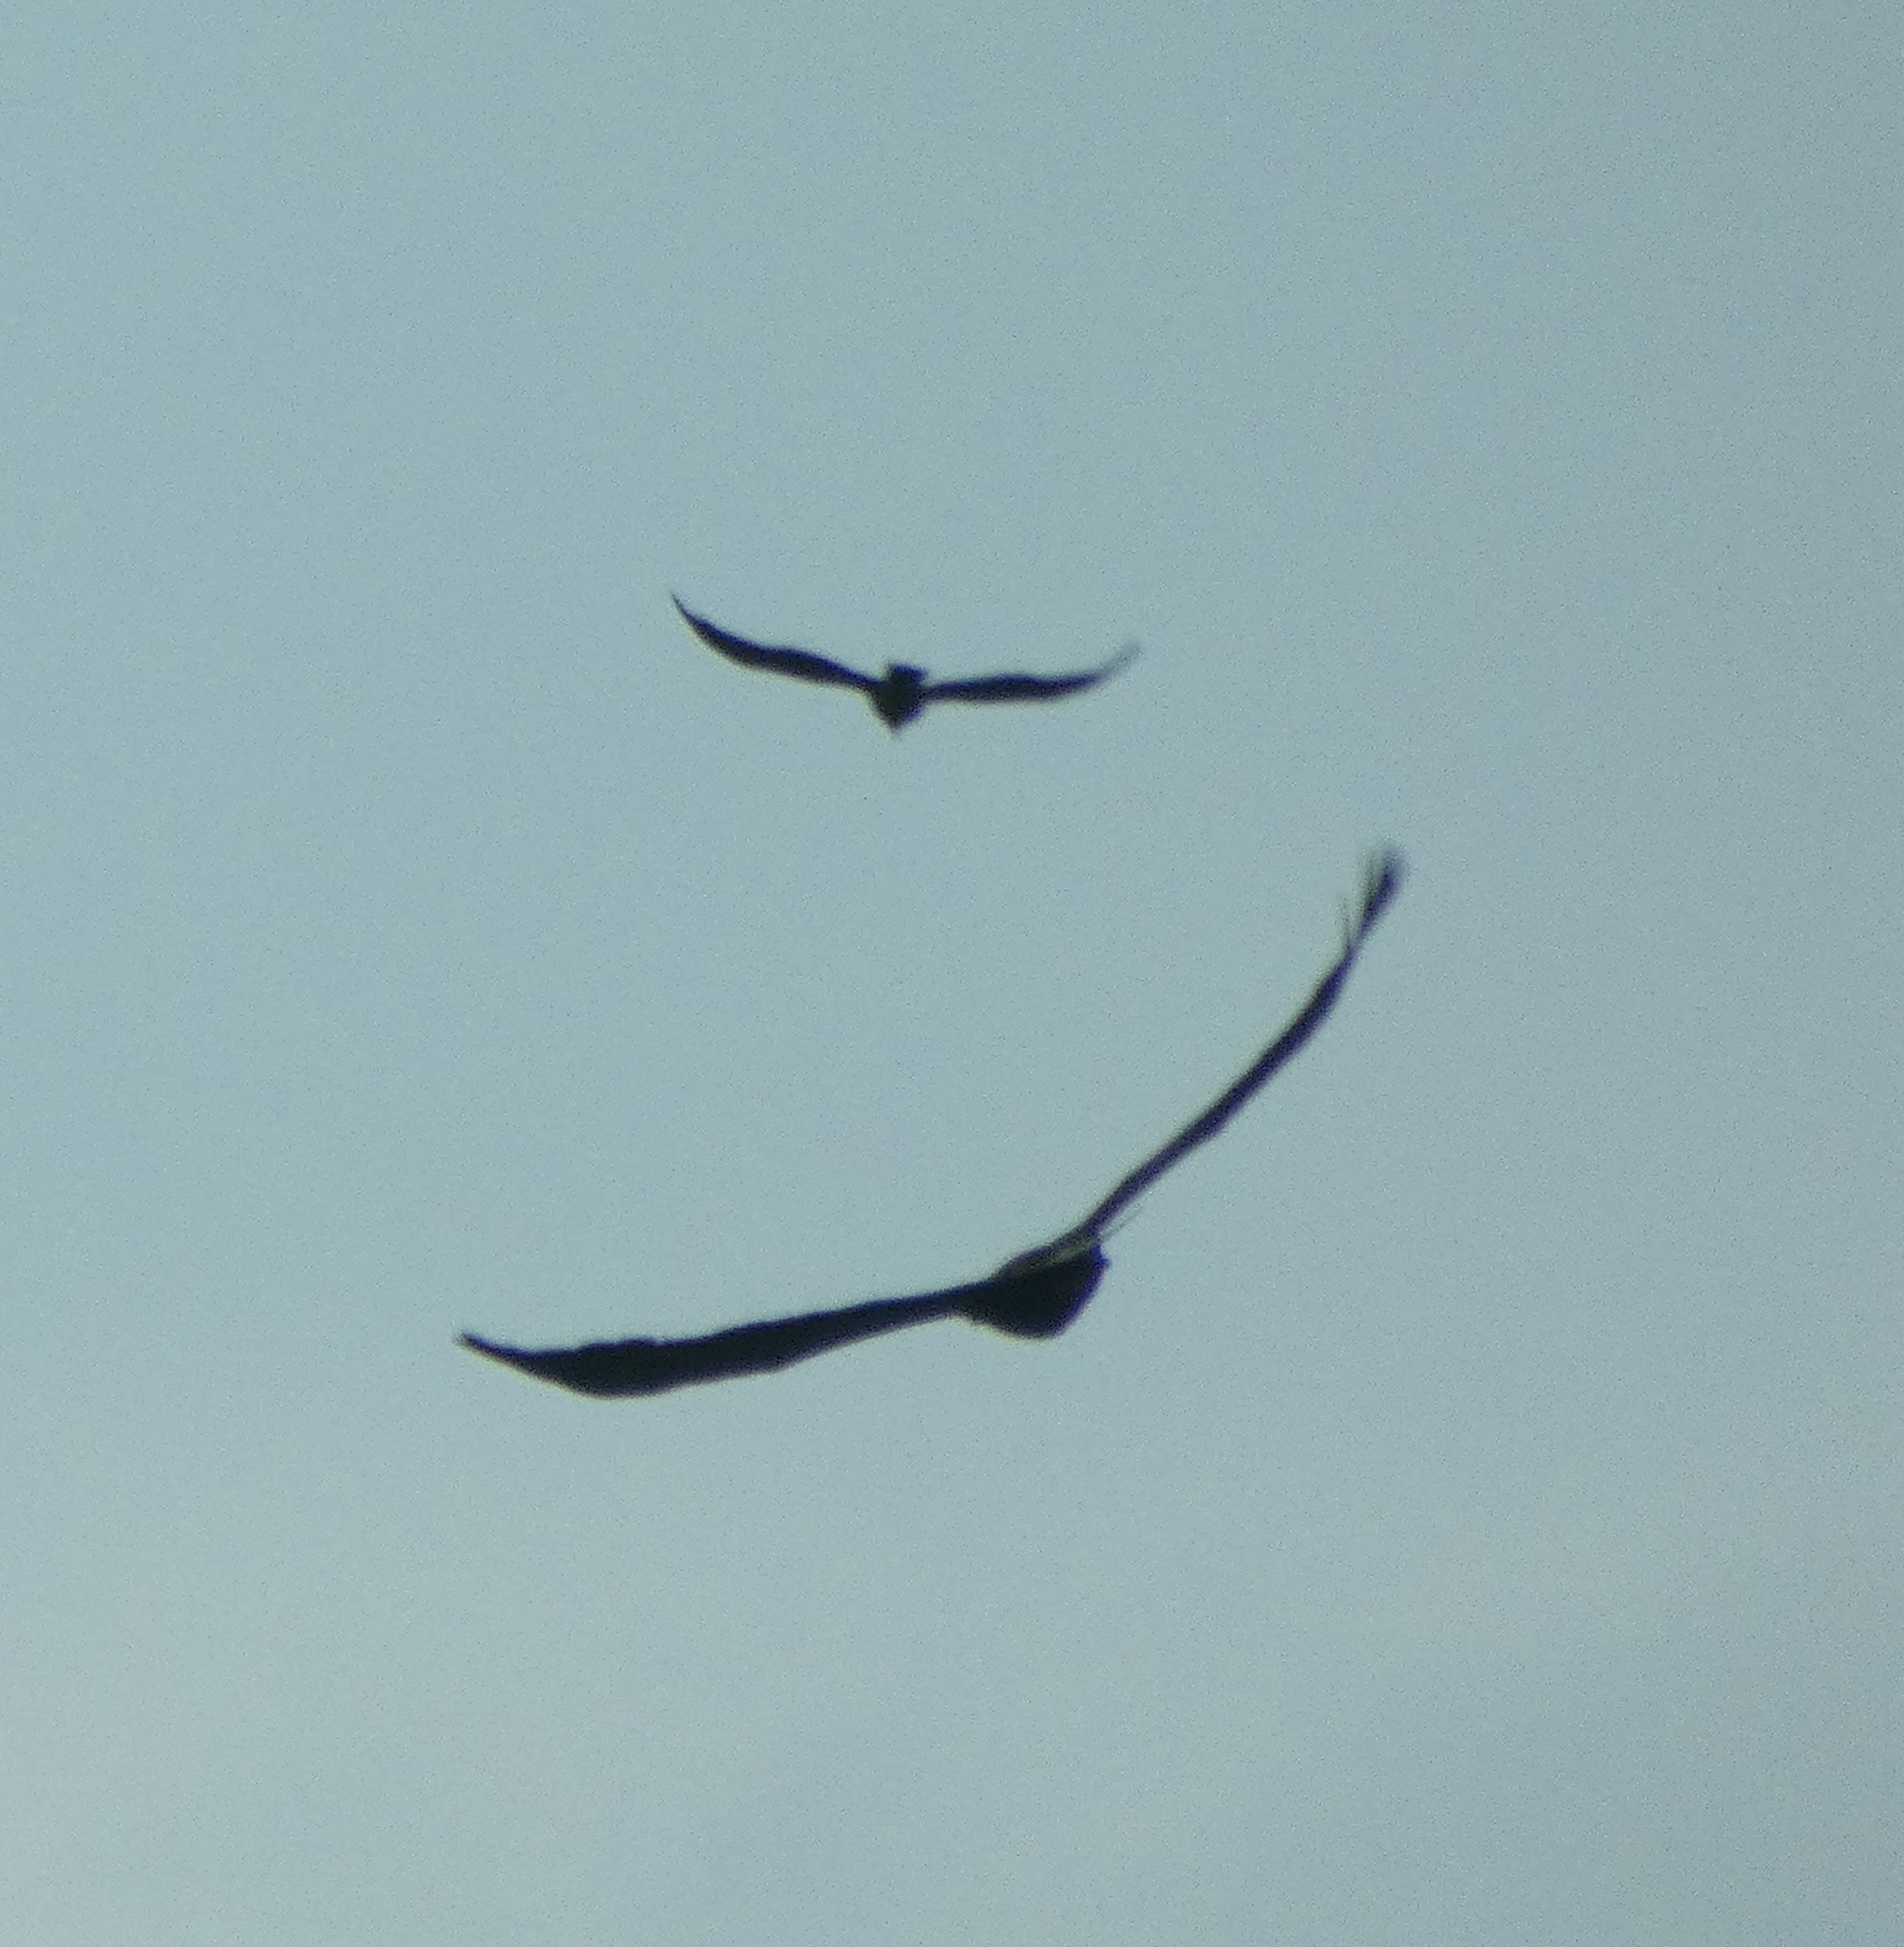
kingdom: Animalia
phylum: Chordata
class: Aves
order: Passeriformes
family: Corvidae
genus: Corvus
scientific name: Corvus cornix
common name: Gråkrage
